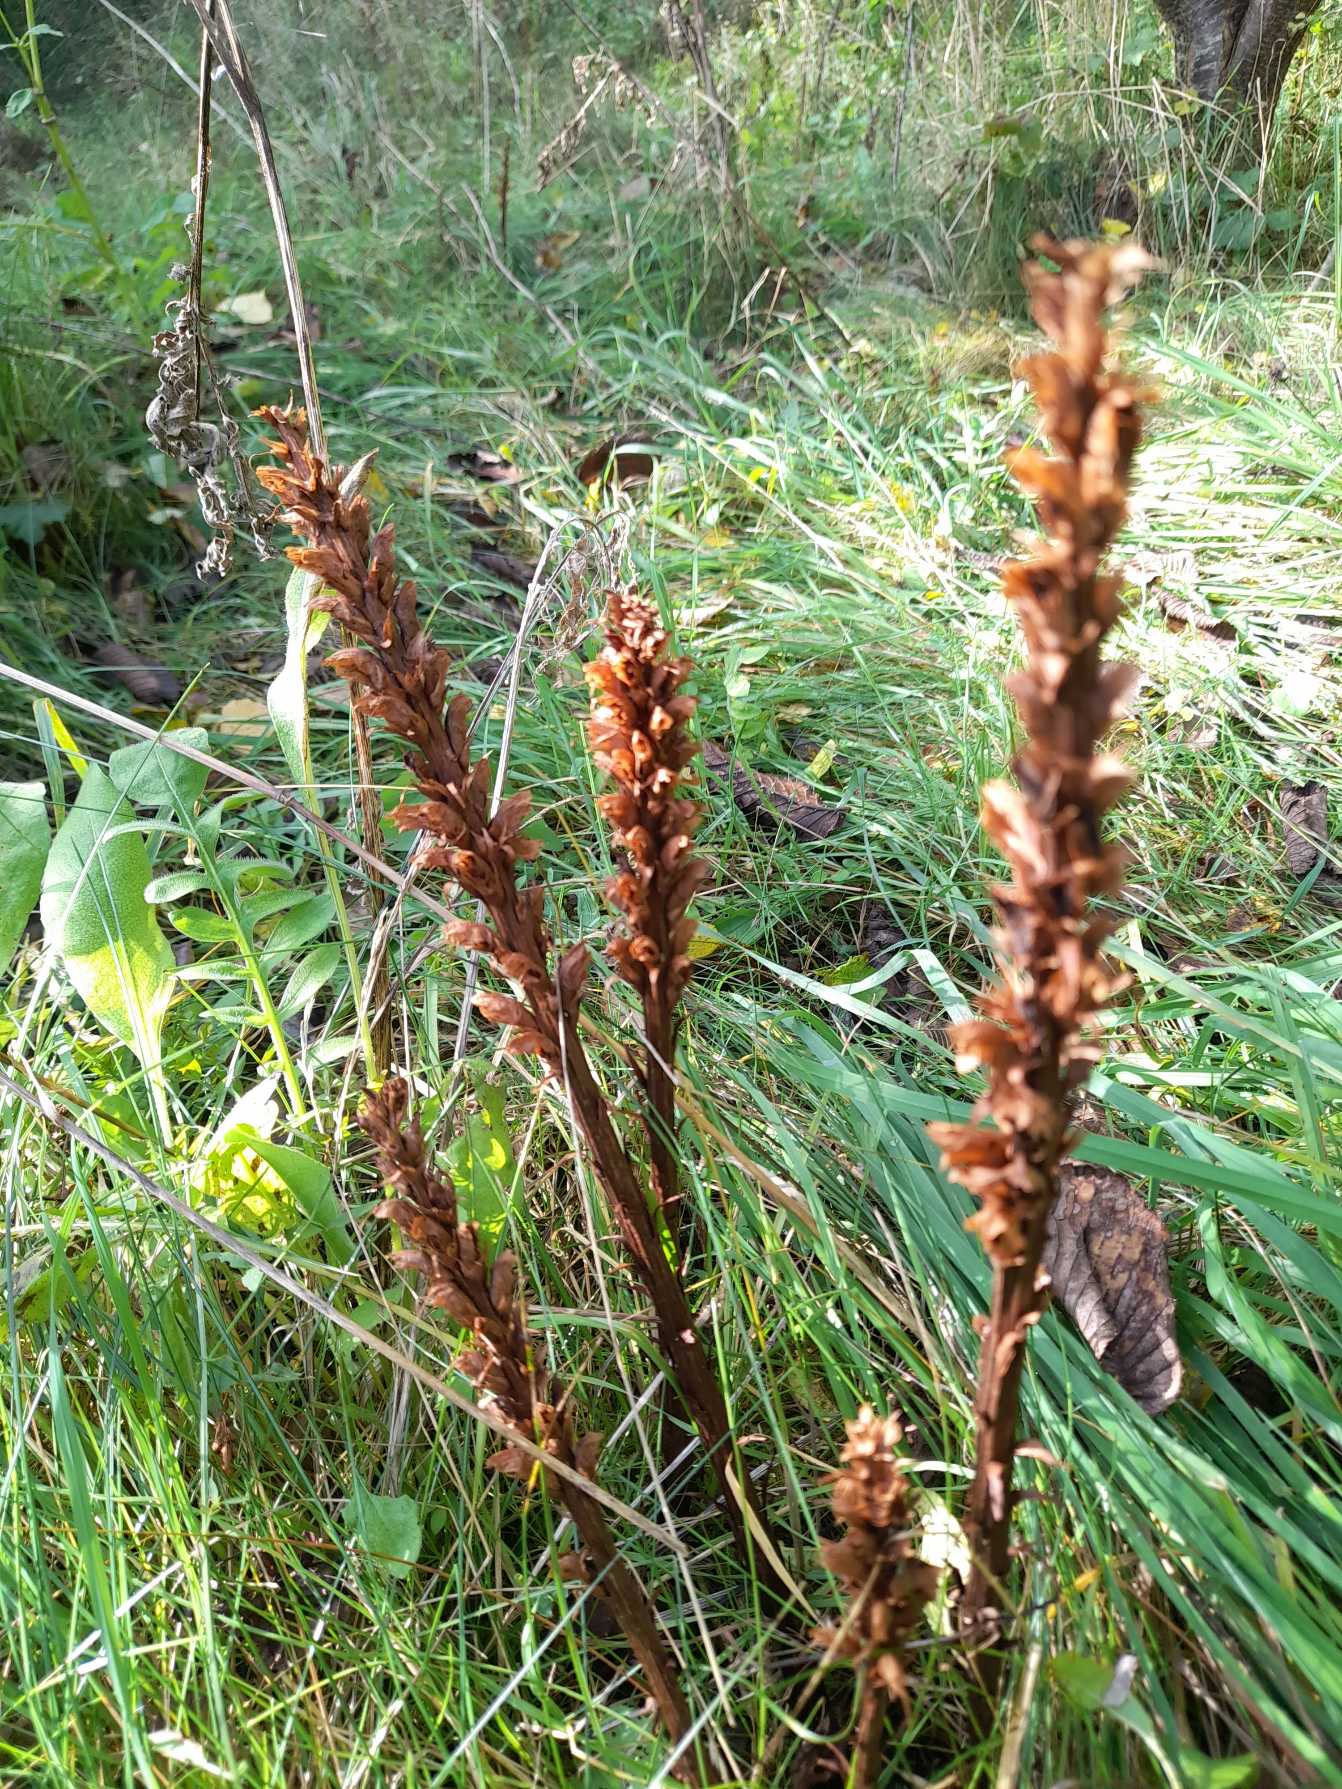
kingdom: Plantae
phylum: Tracheophyta
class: Magnoliopsida
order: Lamiales
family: Orobanchaceae
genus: Orobanche
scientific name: Orobanche elatior
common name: Stor gyvelkvæler
